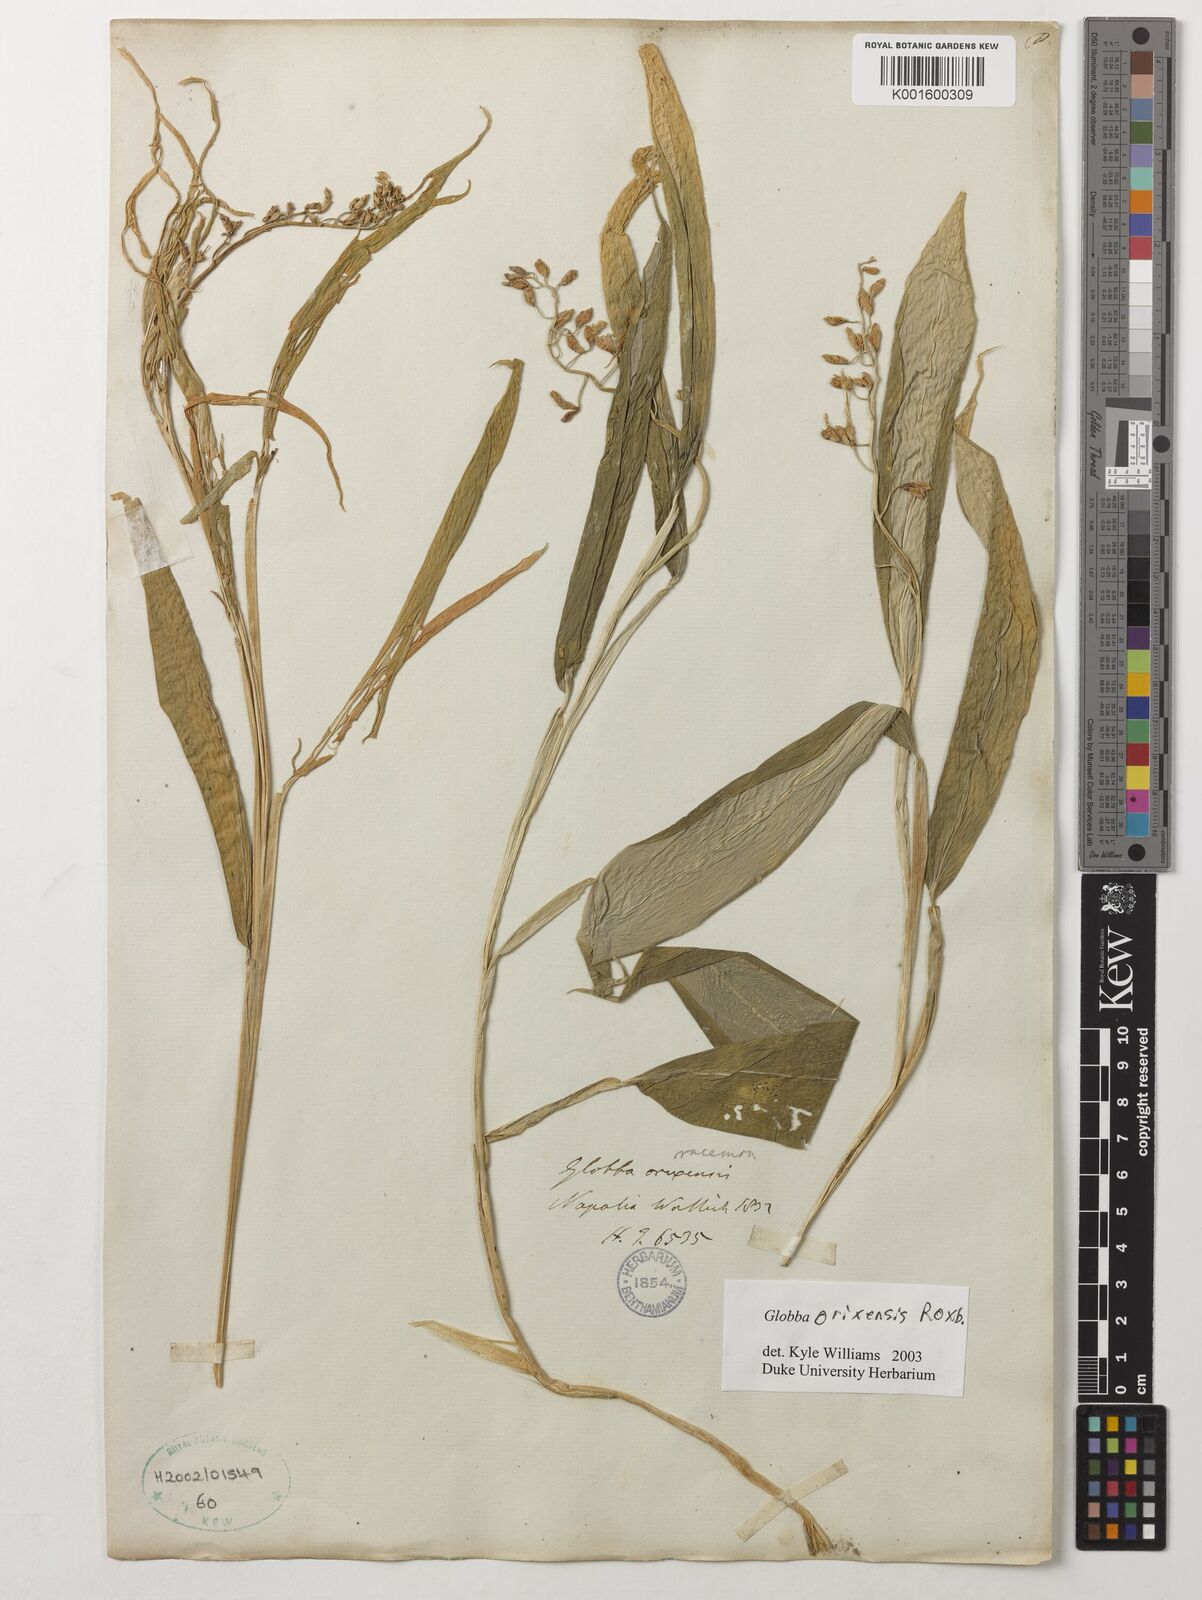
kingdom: Plantae
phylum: Tracheophyta
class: Liliopsida
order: Zingiberales
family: Zingiberaceae
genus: Globba
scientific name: Globba orixensis
